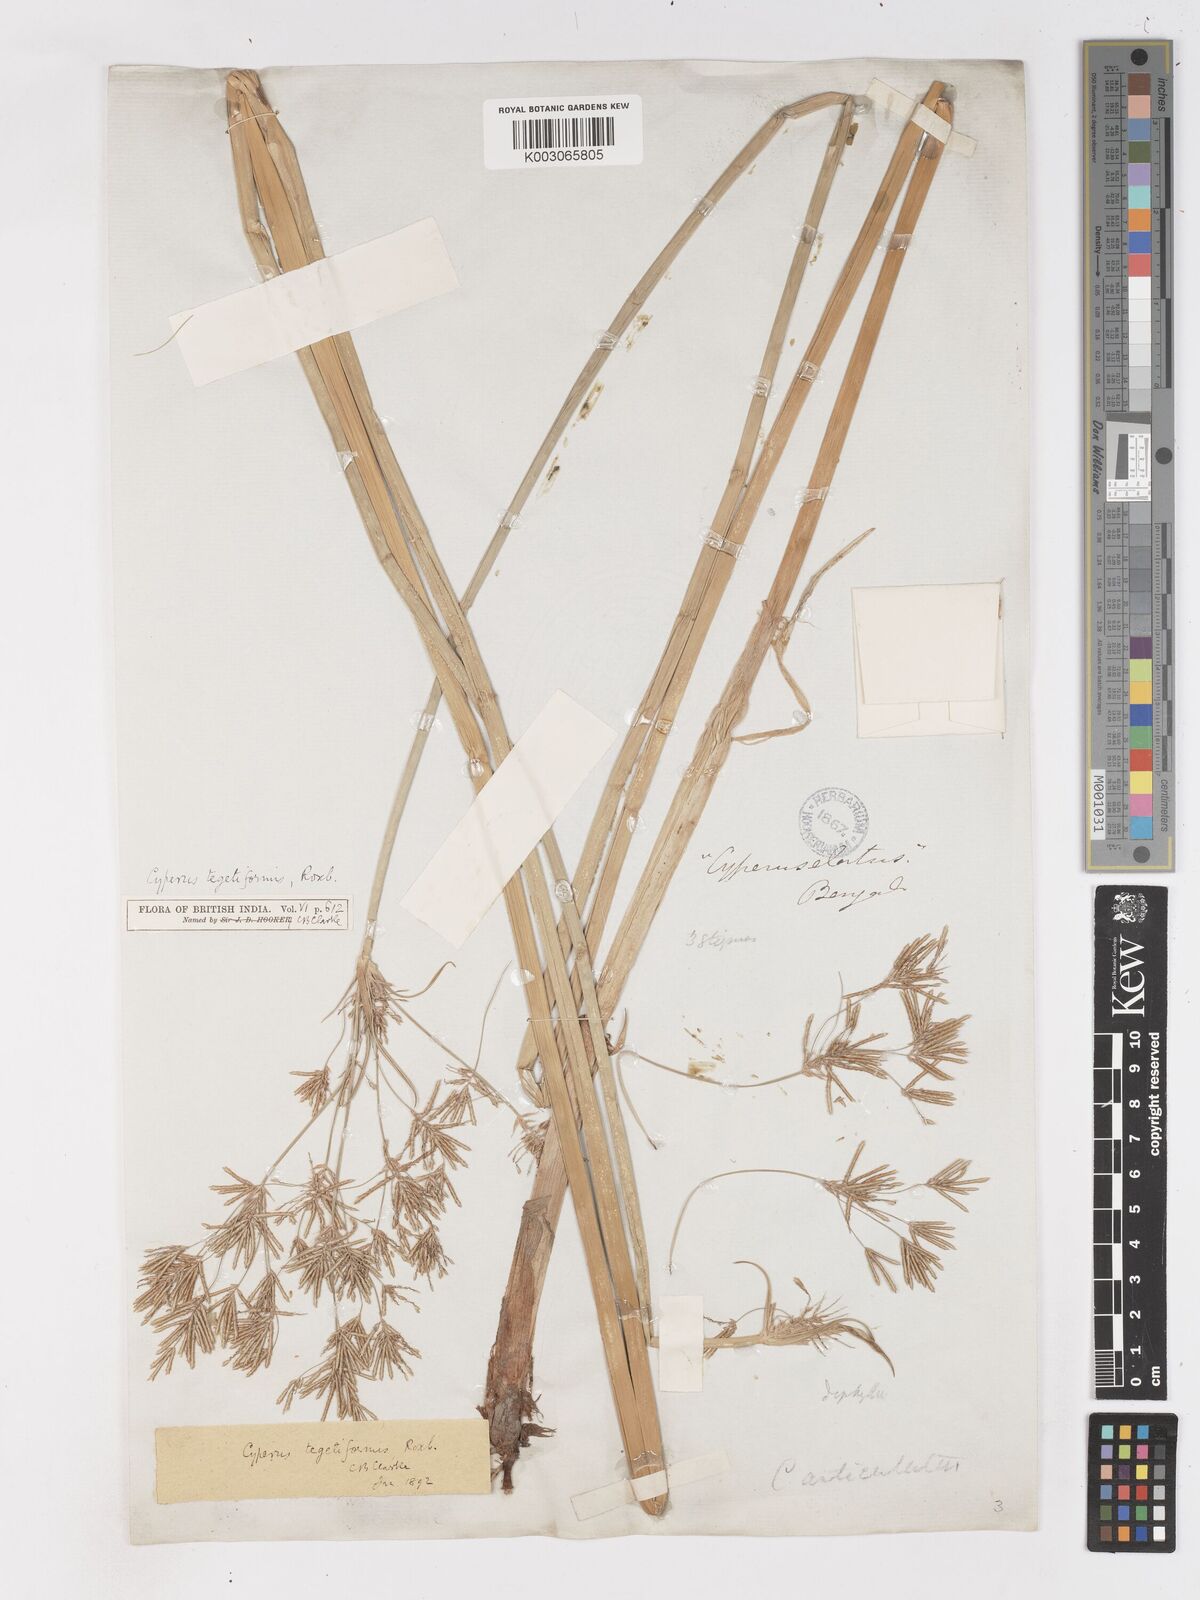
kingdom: Plantae
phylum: Tracheophyta
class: Liliopsida
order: Poales
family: Cyperaceae
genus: Cyperus
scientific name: Cyperus corymbosus
